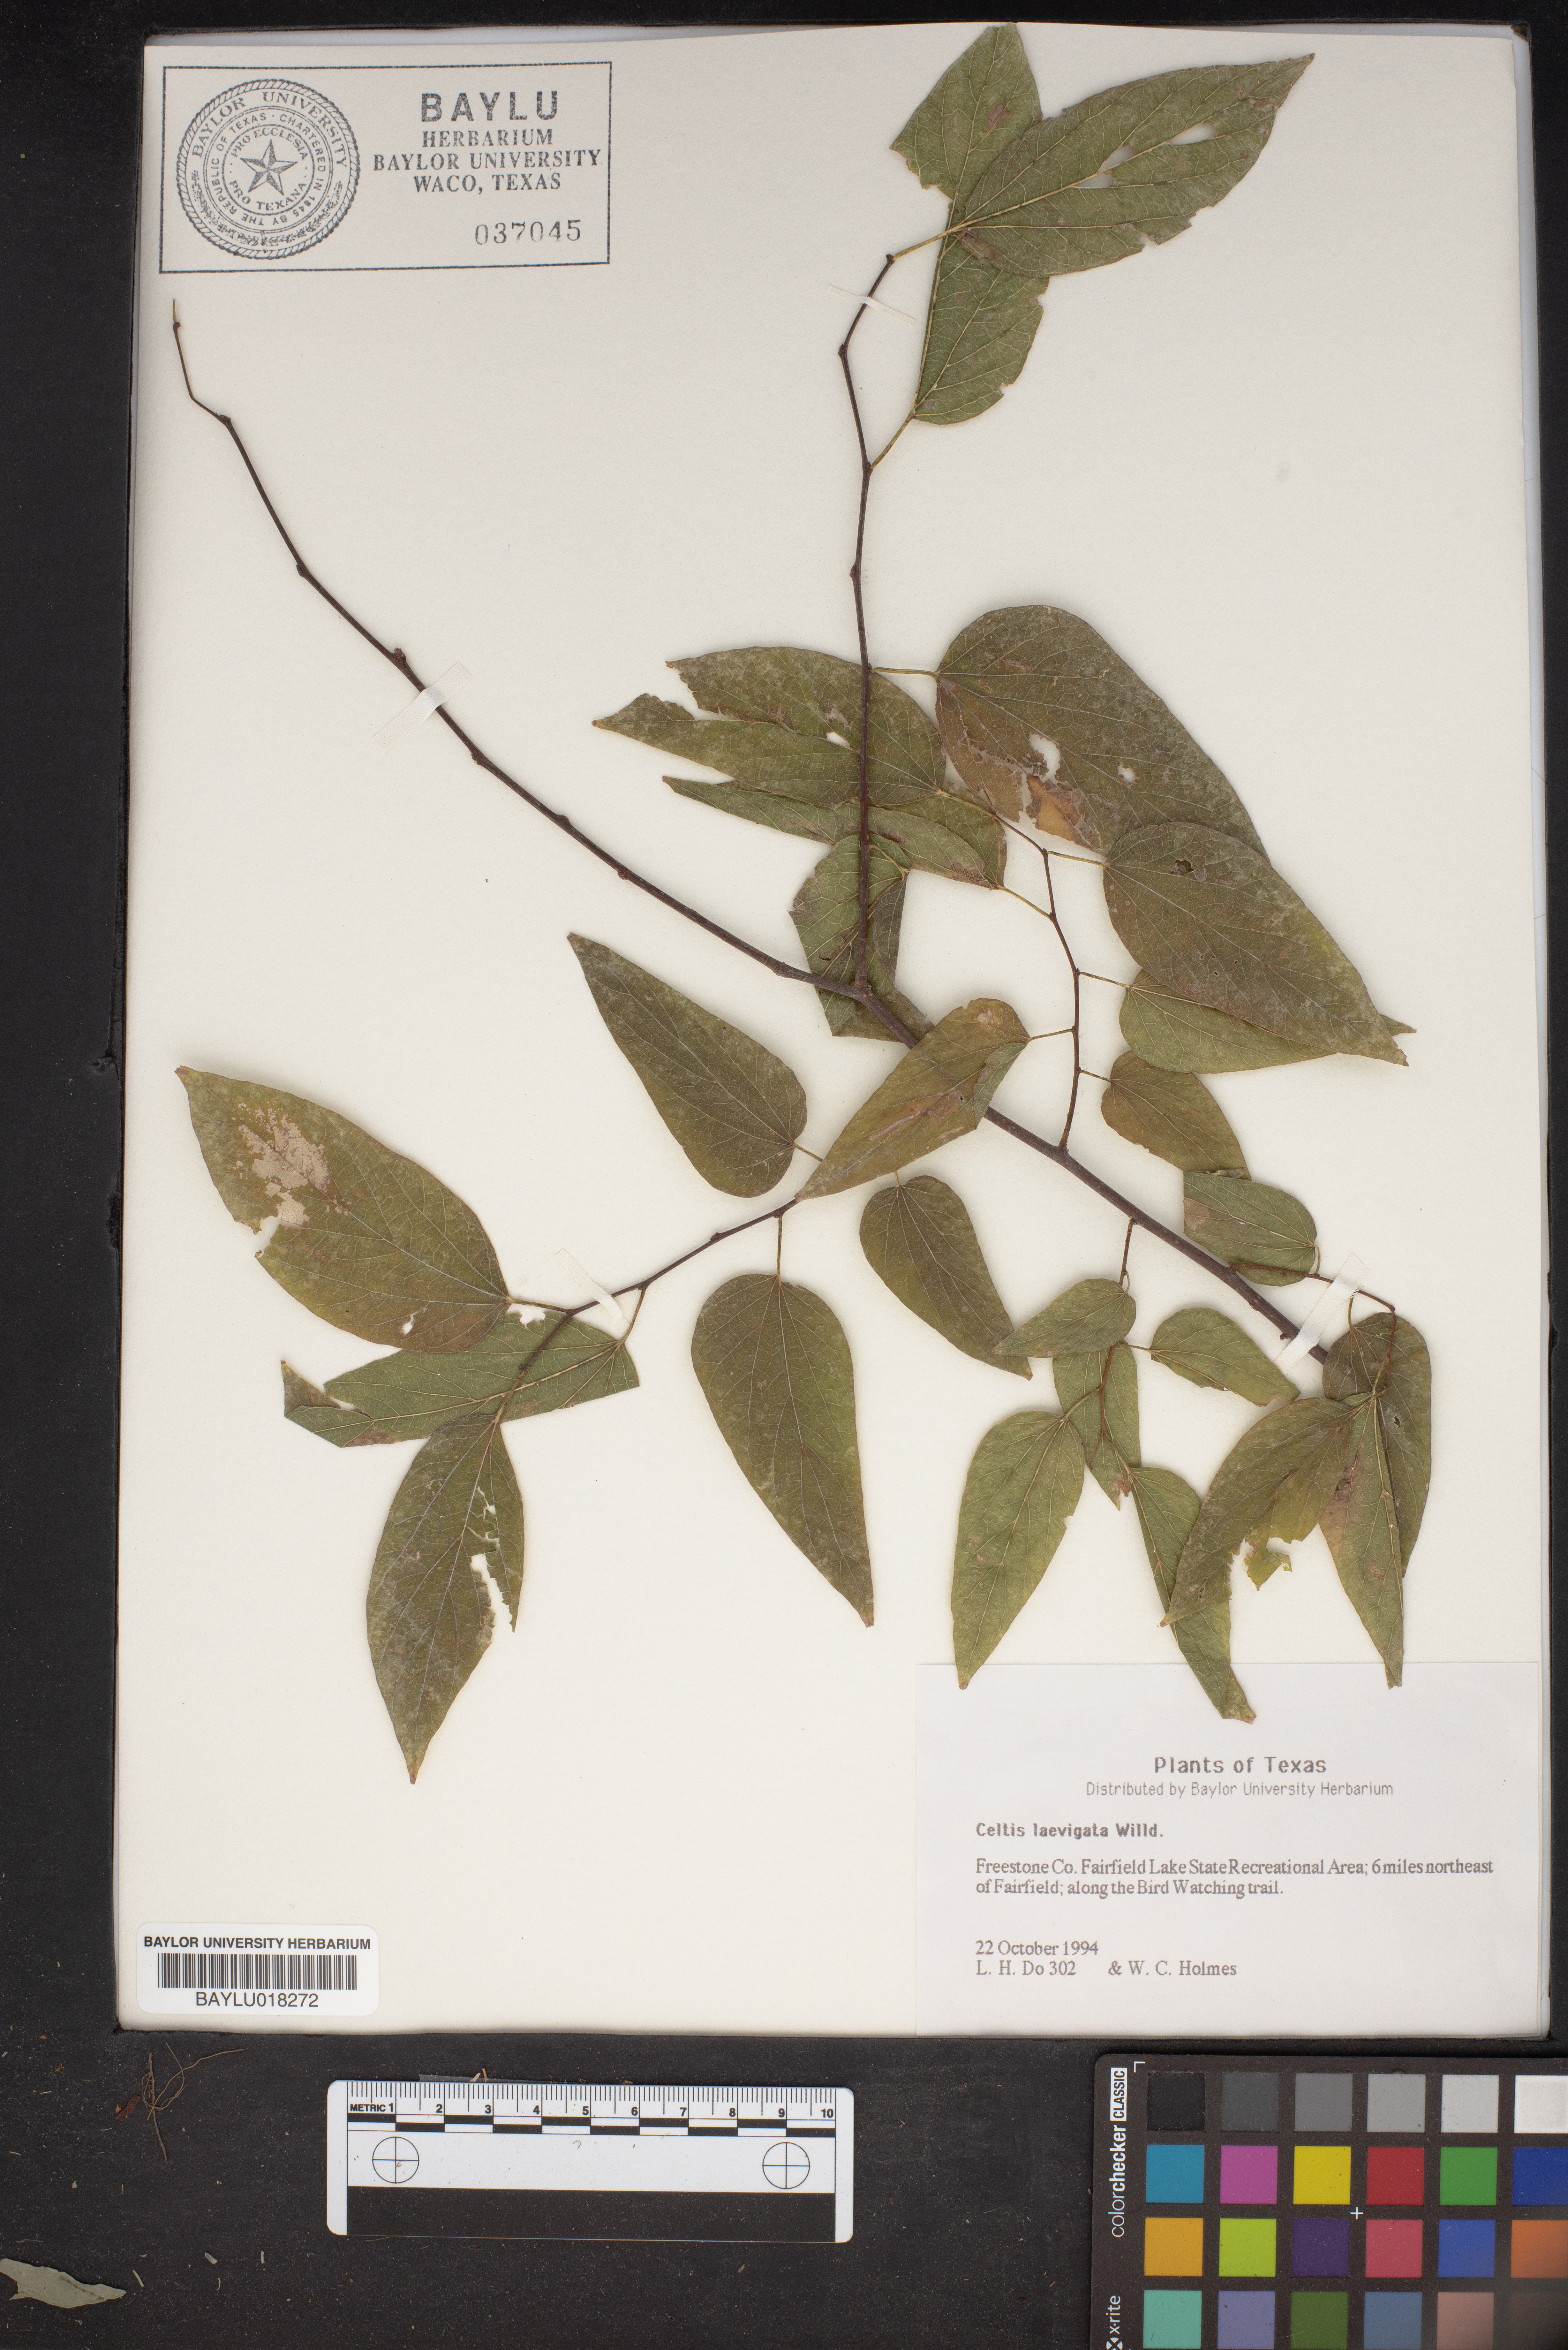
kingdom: Plantae
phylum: Tracheophyta
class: Magnoliopsida
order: Rosales
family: Cannabaceae
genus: Celtis
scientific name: Celtis laevigata
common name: Sugarberry
